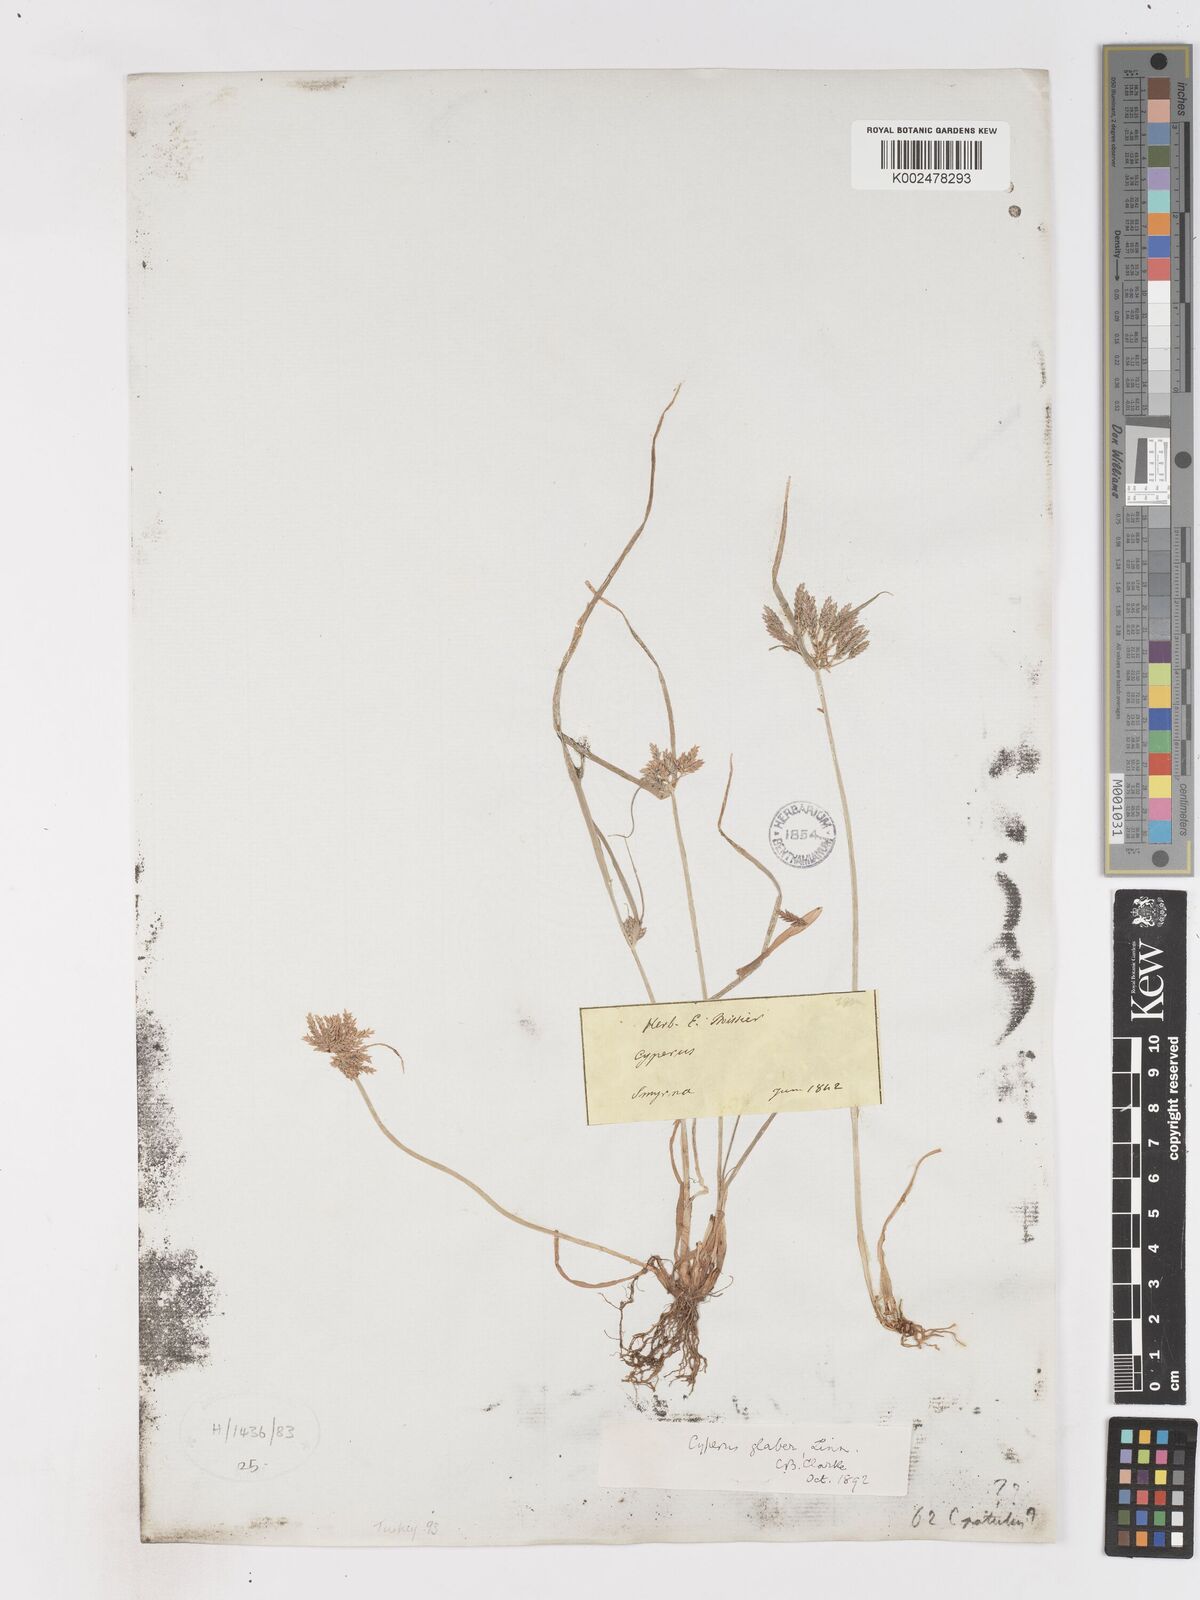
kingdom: Plantae
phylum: Tracheophyta
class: Liliopsida
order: Poales
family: Cyperaceae
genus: Cyperus
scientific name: Cyperus glaber
